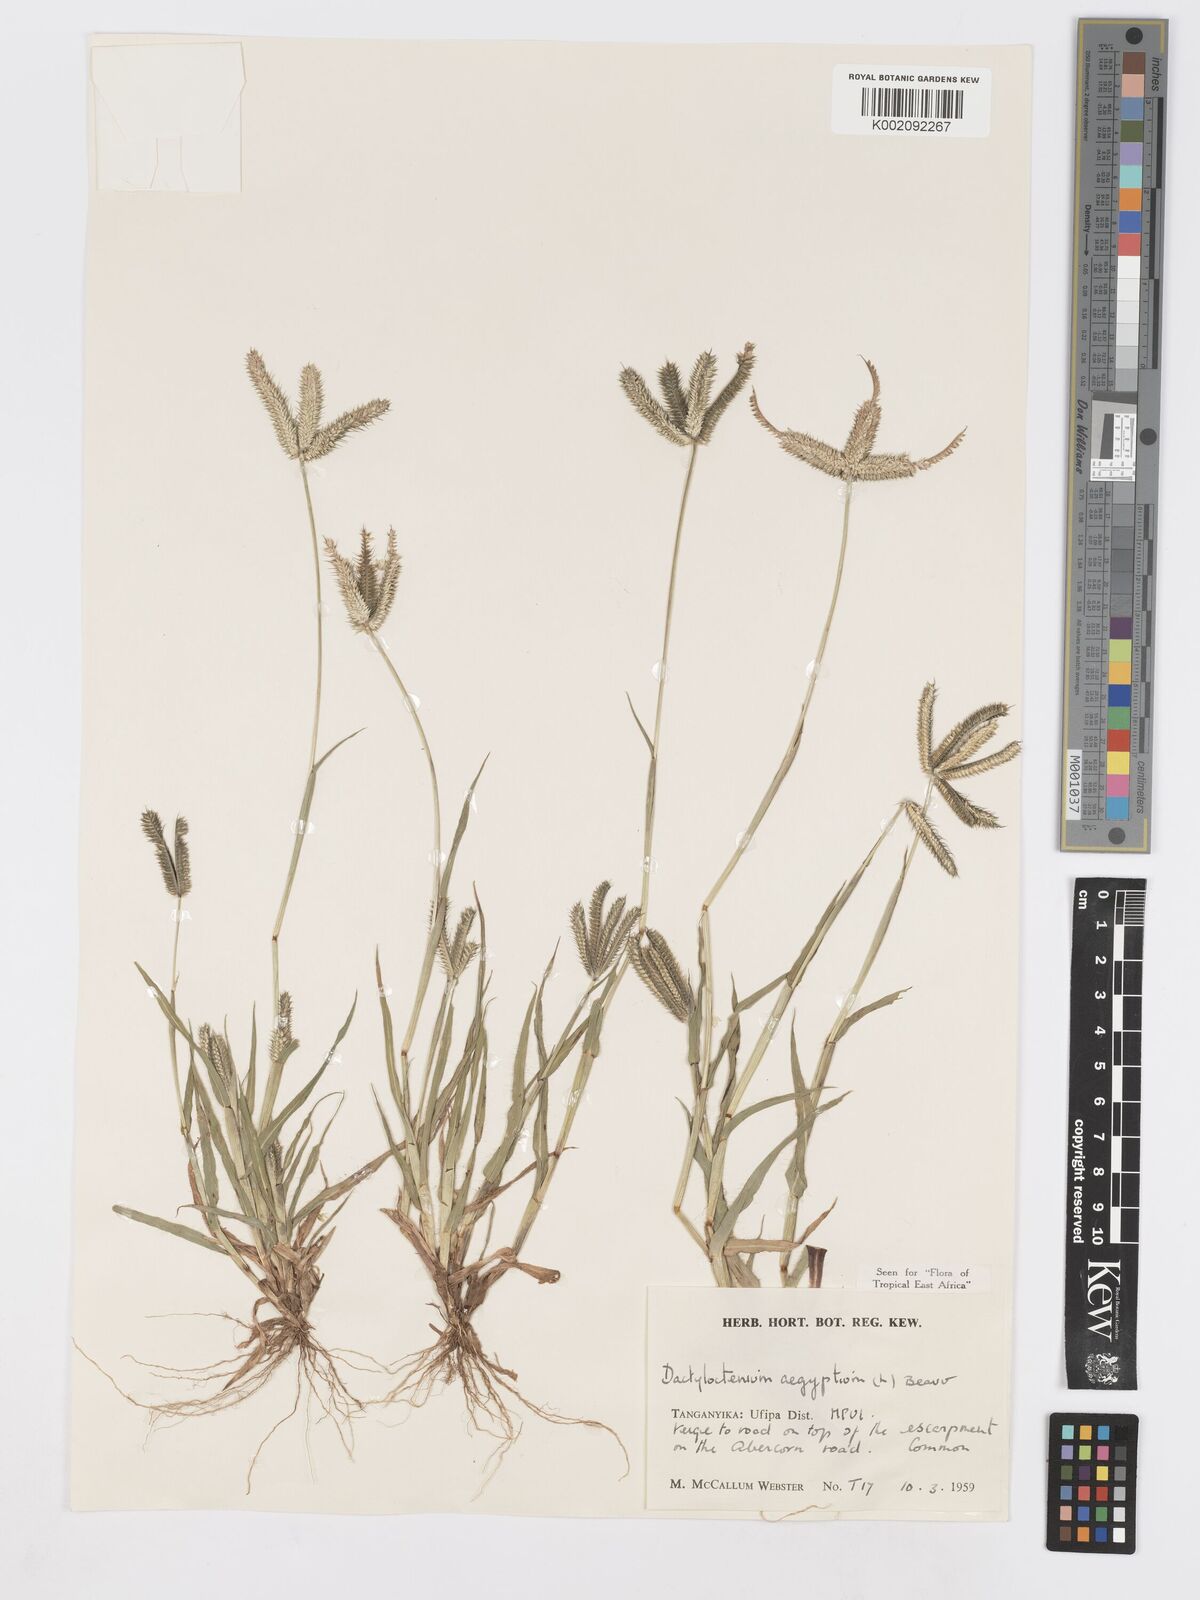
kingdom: Plantae
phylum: Tracheophyta
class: Liliopsida
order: Poales
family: Poaceae
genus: Dactyloctenium
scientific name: Dactyloctenium aegyptium
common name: Egyptian grass
